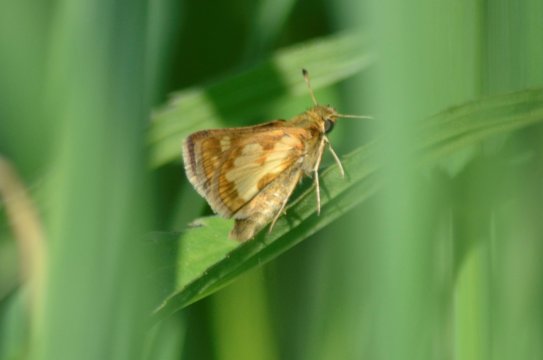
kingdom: Animalia
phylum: Arthropoda
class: Insecta
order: Lepidoptera
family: Hesperiidae
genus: Polites
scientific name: Polites coras
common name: Peck's Skipper
